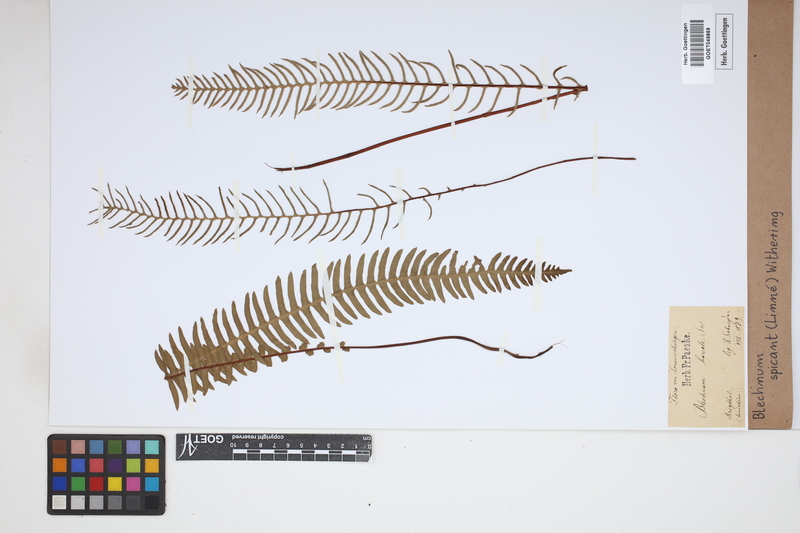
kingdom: Plantae
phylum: Tracheophyta
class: Polypodiopsida
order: Polypodiales
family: Blechnaceae
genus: Struthiopteris
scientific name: Struthiopteris spicant
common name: Deer fern
